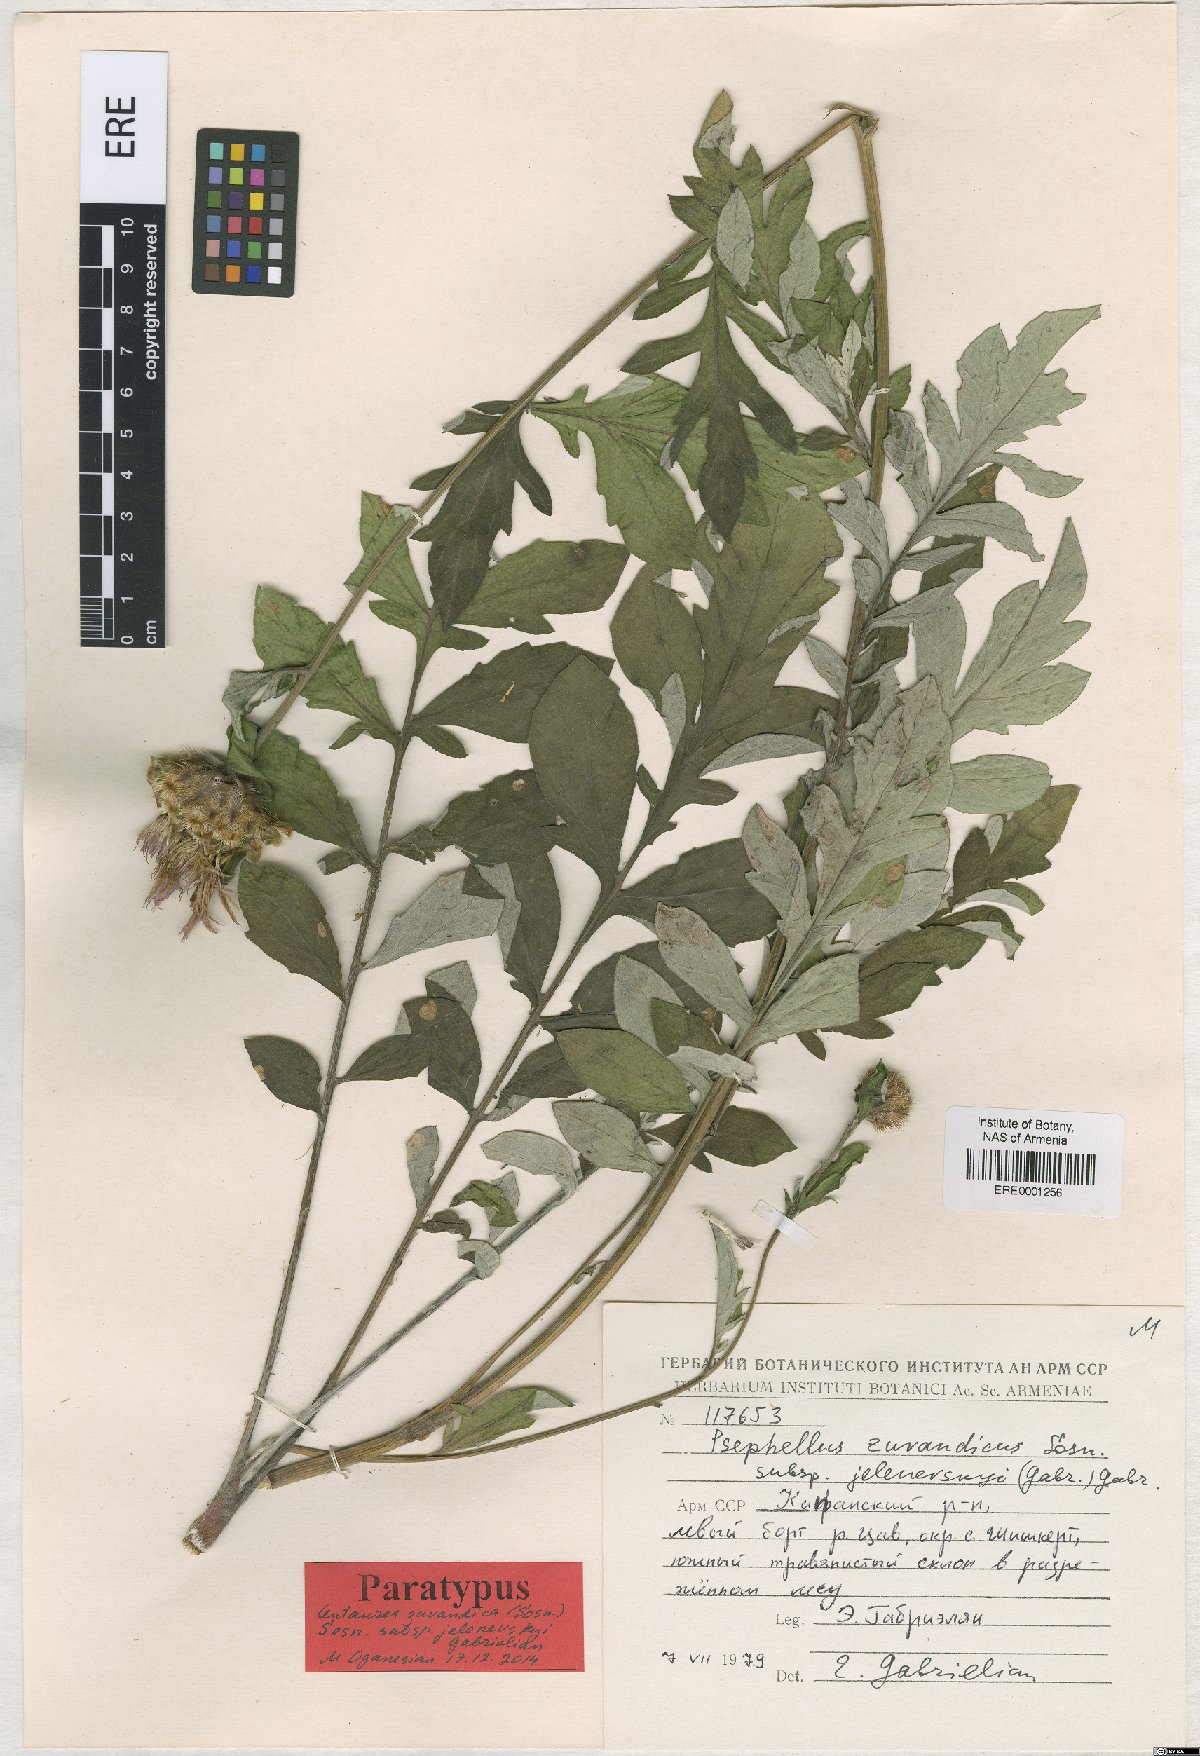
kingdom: Plantae
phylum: Tracheophyta
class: Magnoliopsida
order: Asterales
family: Asteraceae
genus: Psephellus
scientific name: Psephellus zuvandicus
